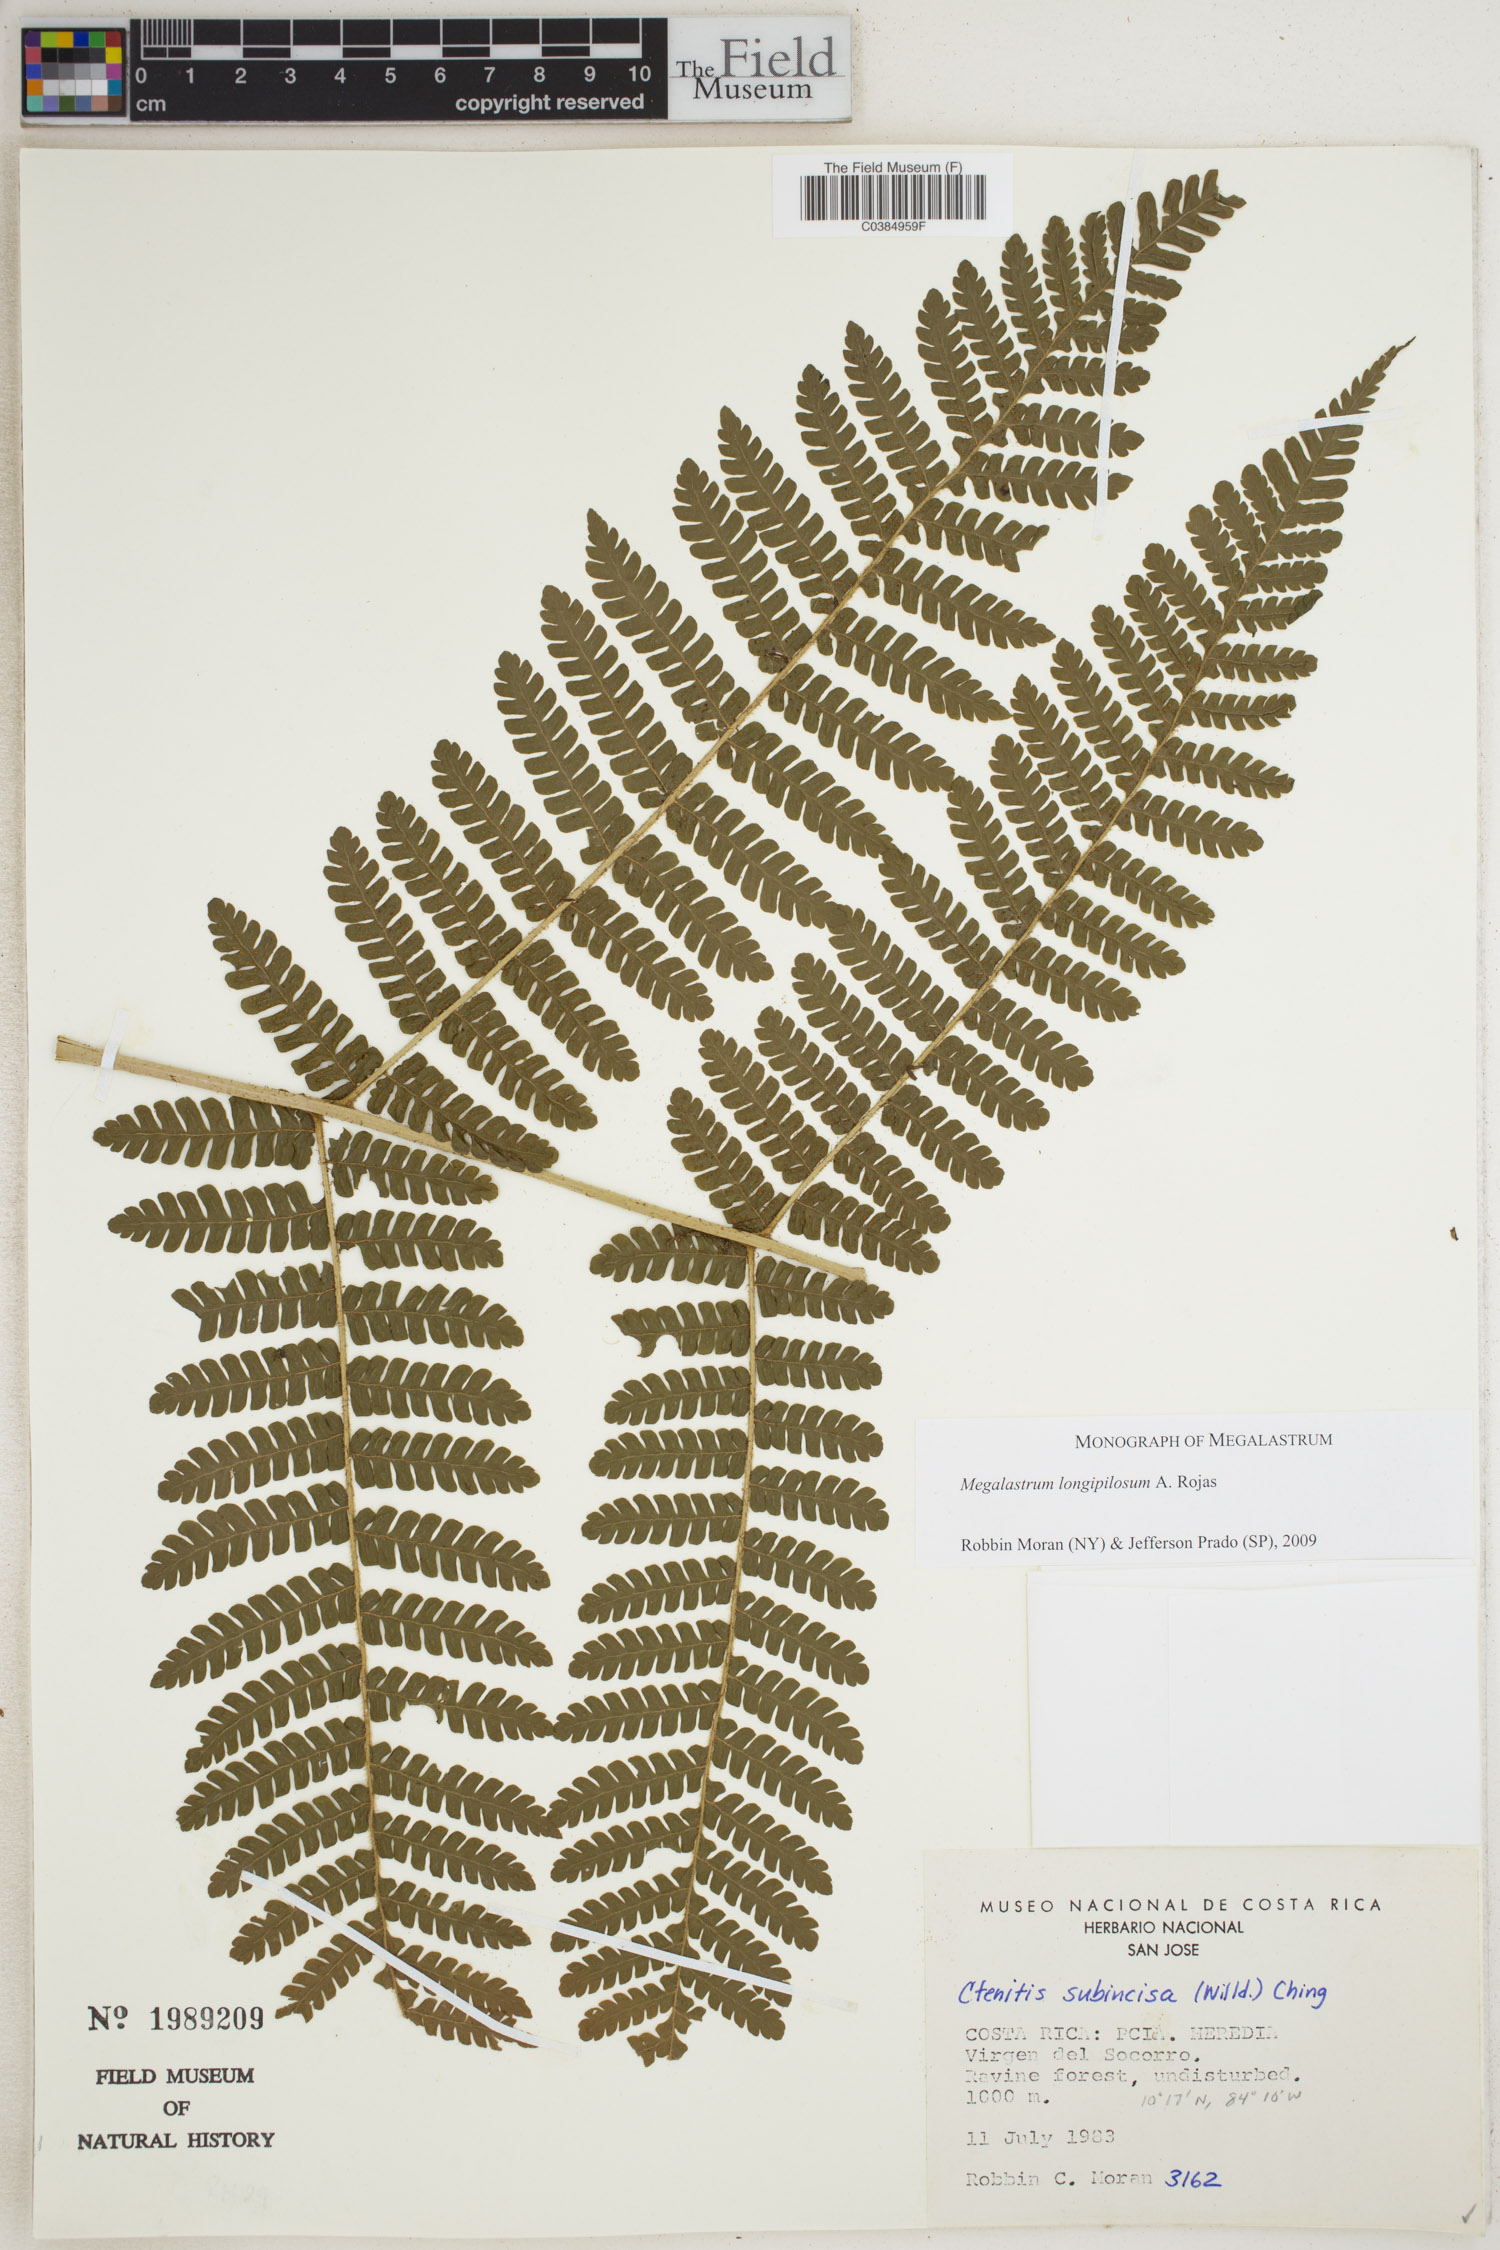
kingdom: Plantae
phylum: Tracheophyta
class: Polypodiopsida
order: Polypodiales
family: Dryopteridaceae
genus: Megalastrum
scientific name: Megalastrum longipilosum
